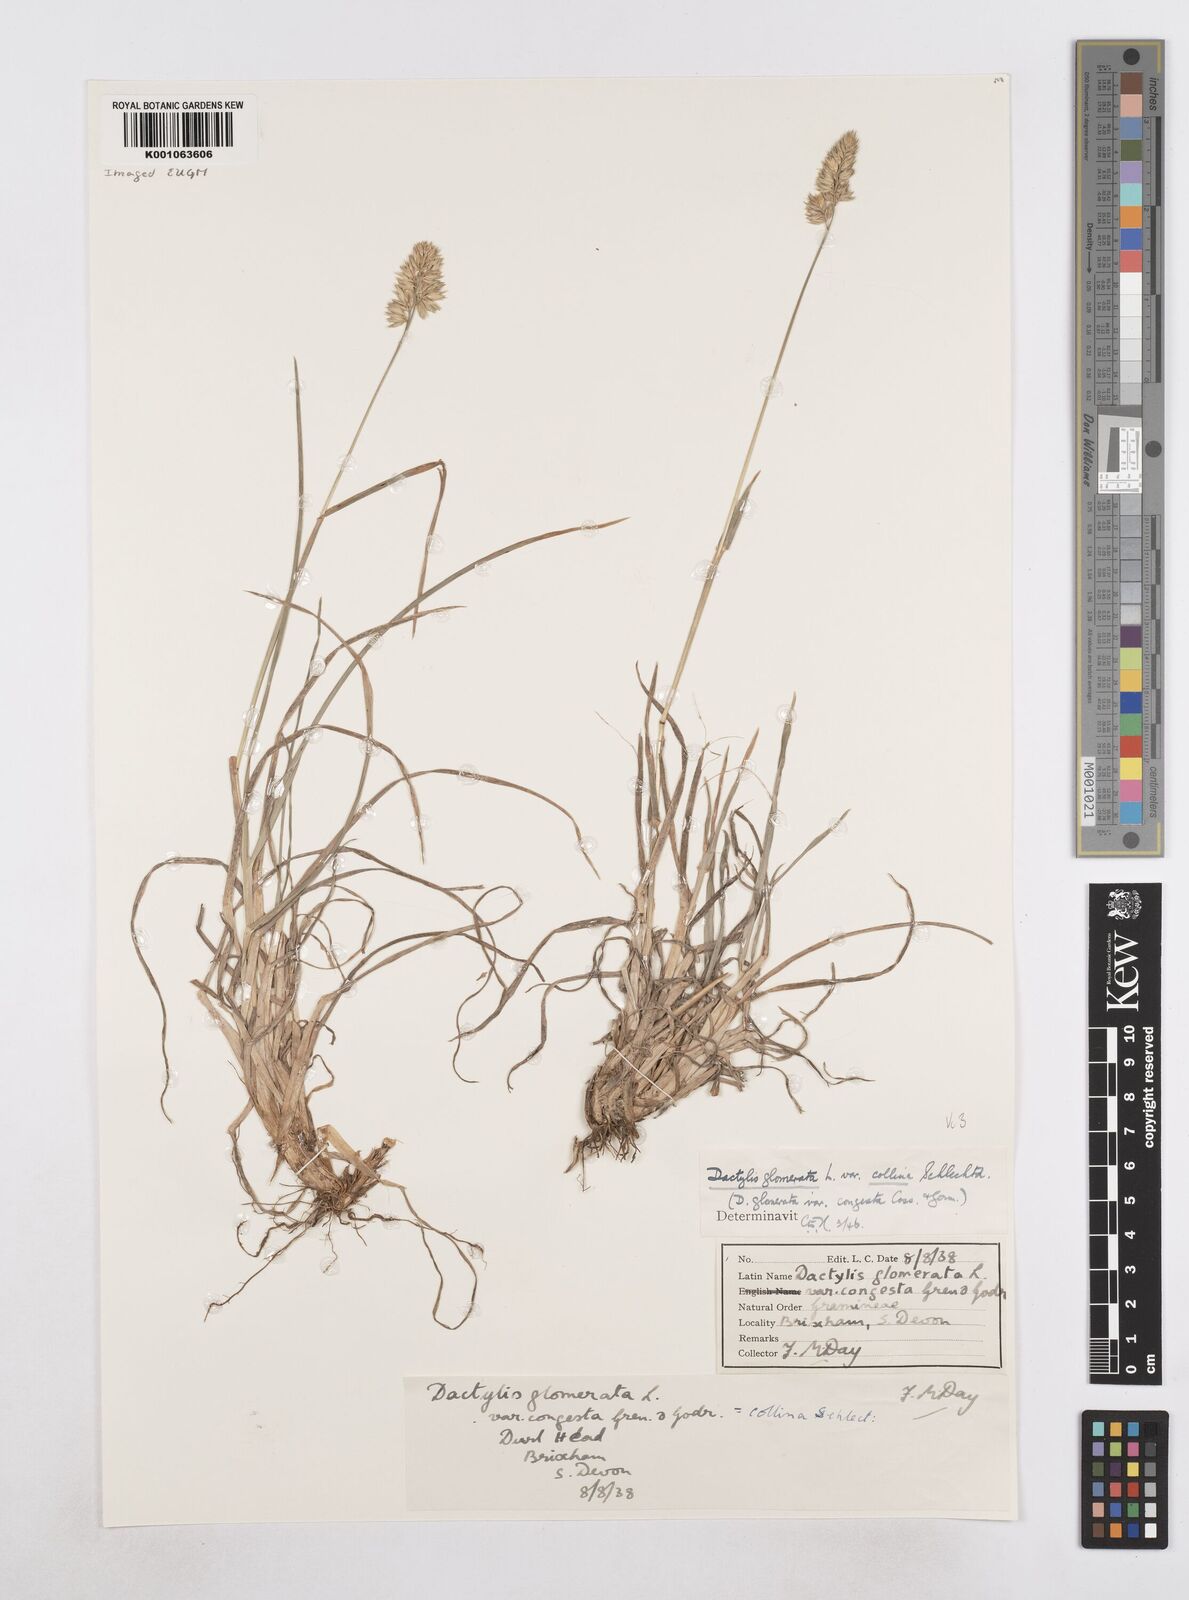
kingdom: Plantae
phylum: Tracheophyta
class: Liliopsida
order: Poales
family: Poaceae
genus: Dactylis
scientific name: Dactylis glomerata
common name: Orchardgrass
